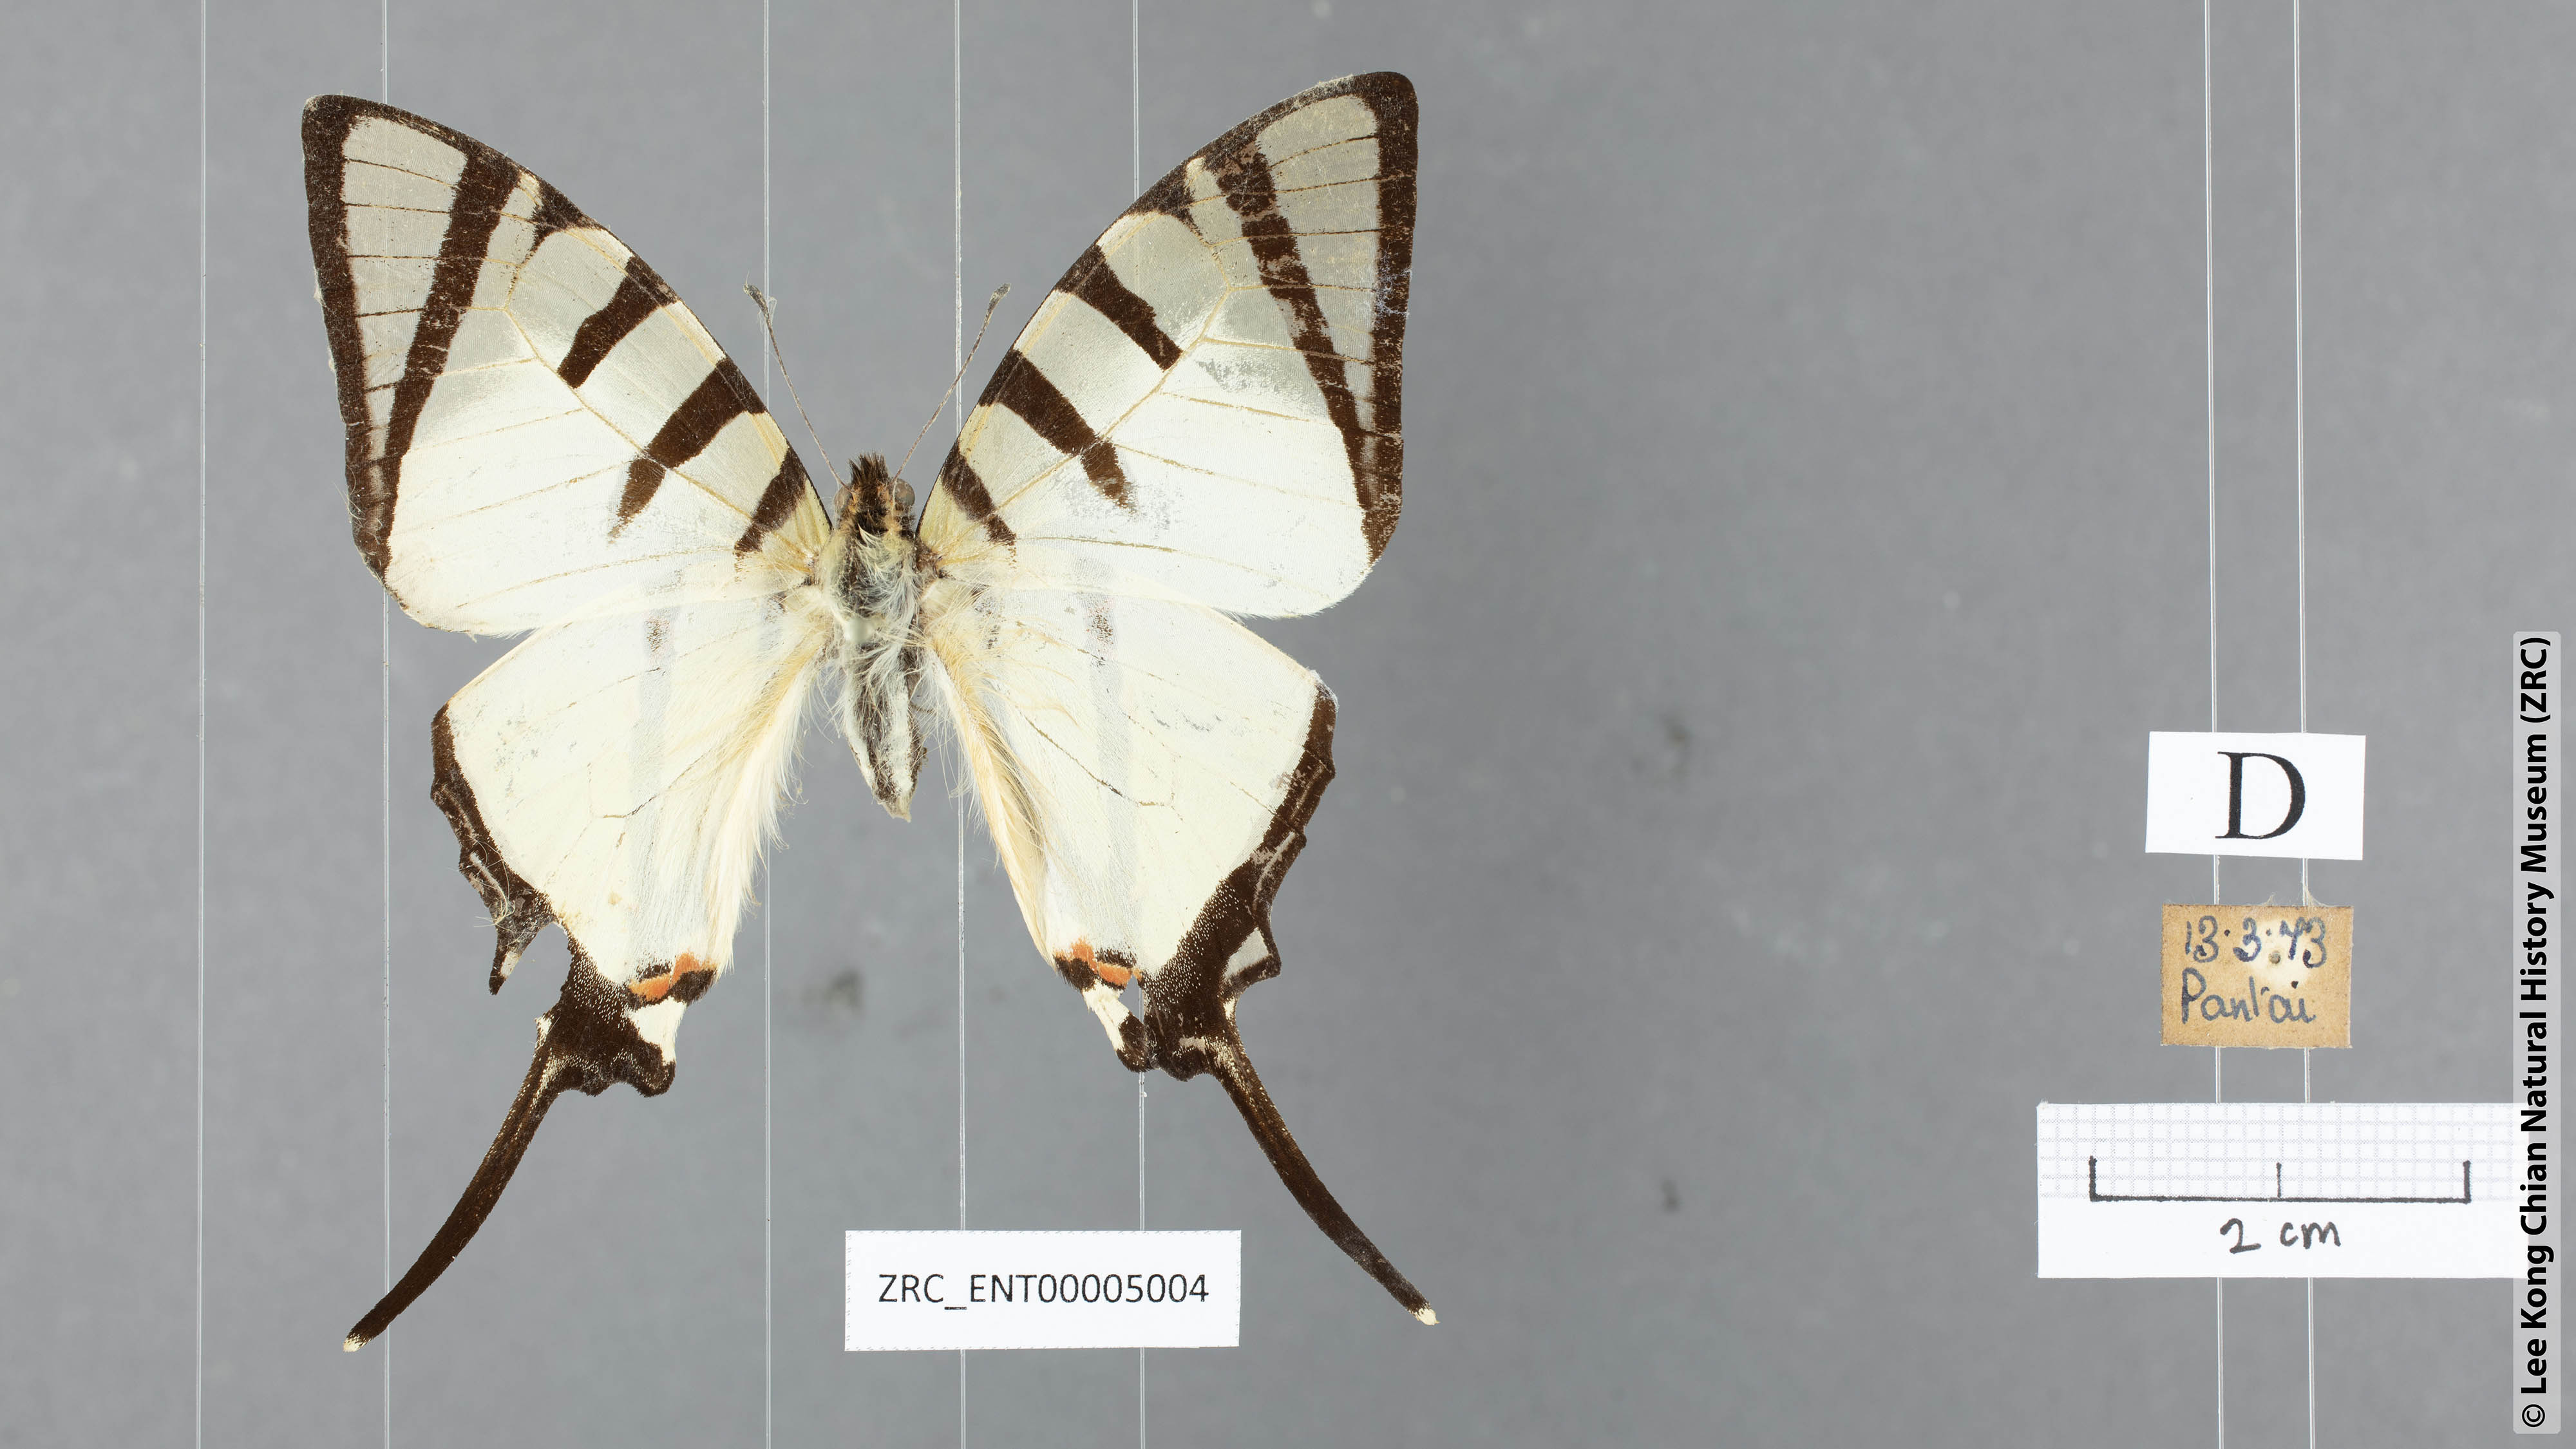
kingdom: Animalia
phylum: Arthropoda
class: Insecta
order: Lepidoptera
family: Papilionidae
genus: Graphium
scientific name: Graphium agetes
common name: Fourbar swordtail
